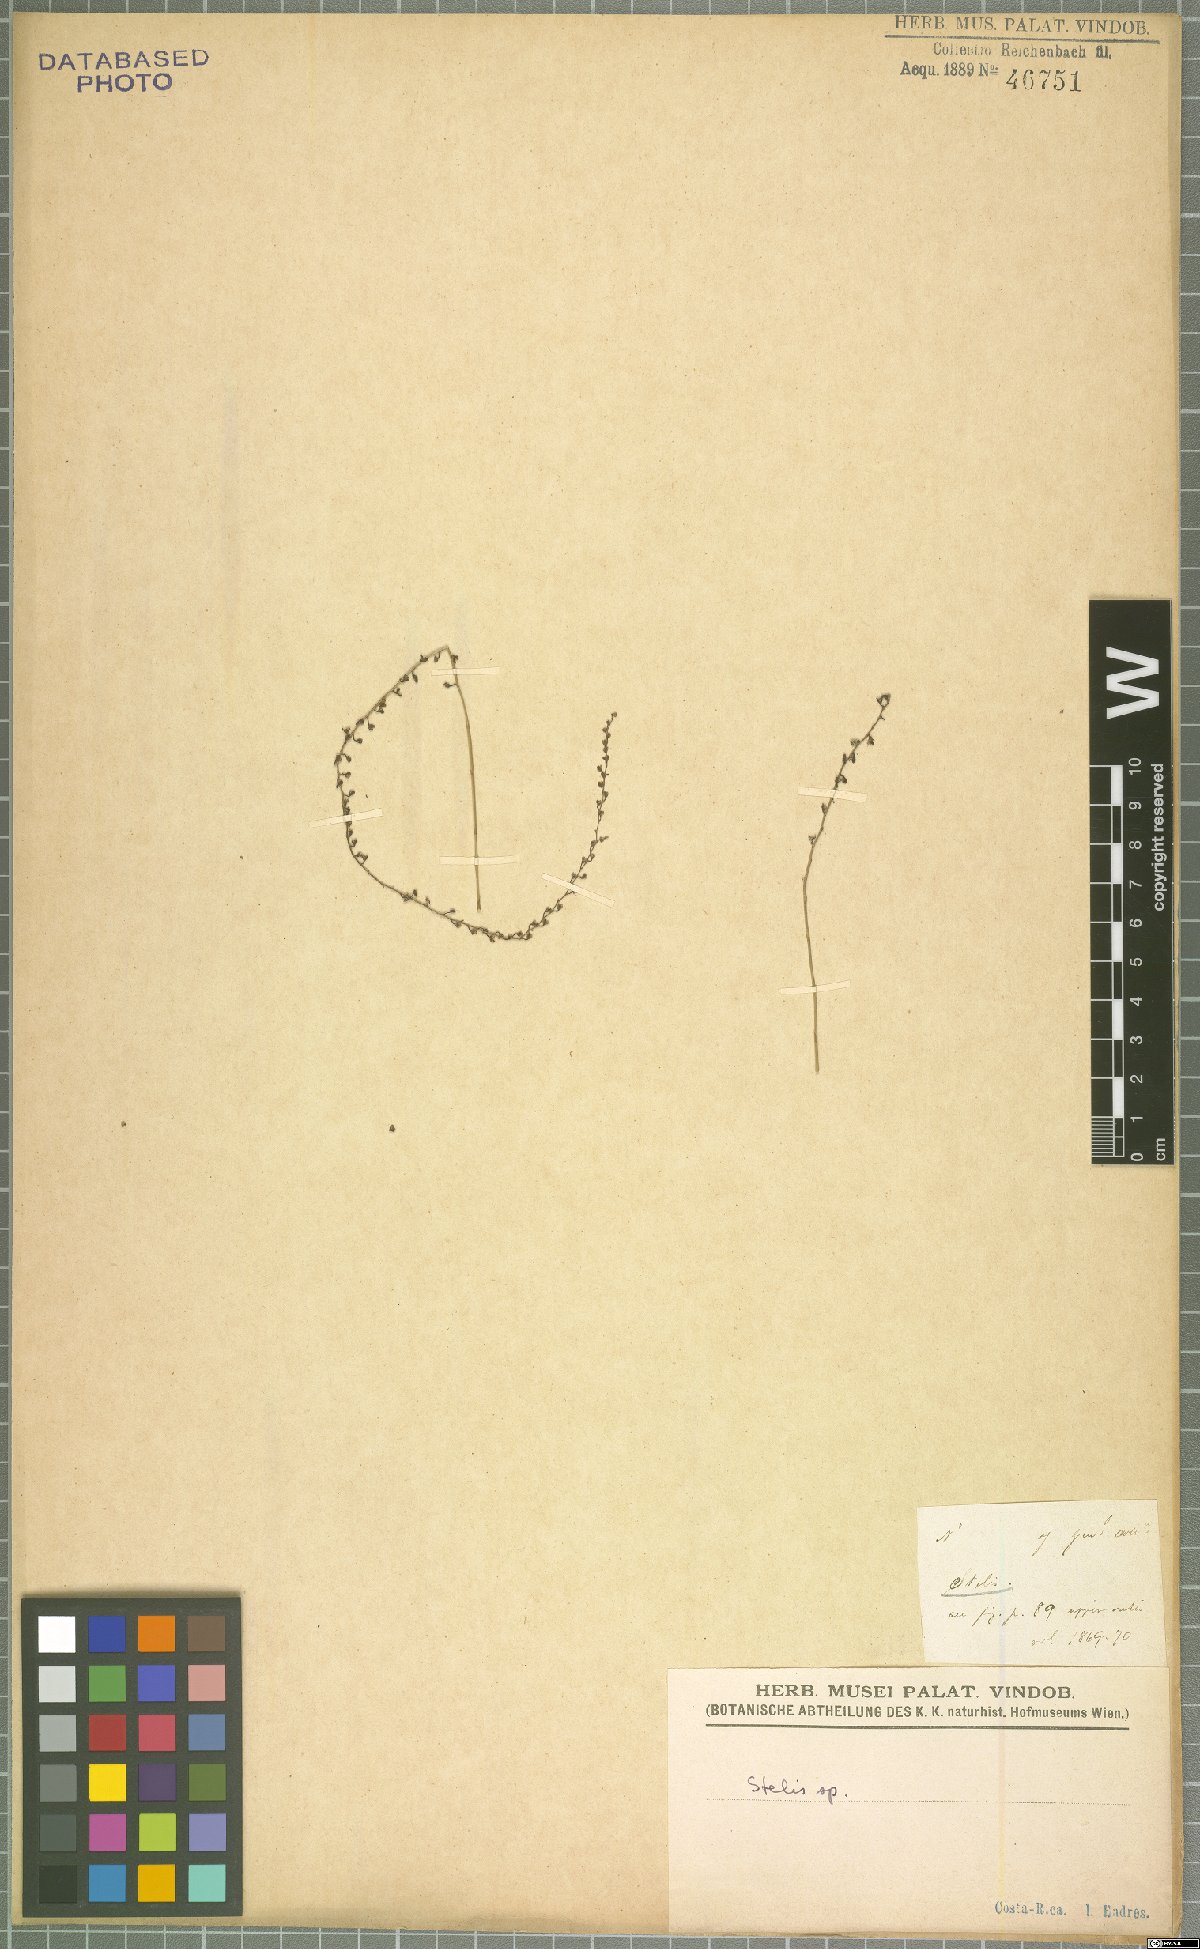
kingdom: Plantae
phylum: Tracheophyta
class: Liliopsida
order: Asparagales
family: Orchidaceae
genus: Stelis
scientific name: Stelis
